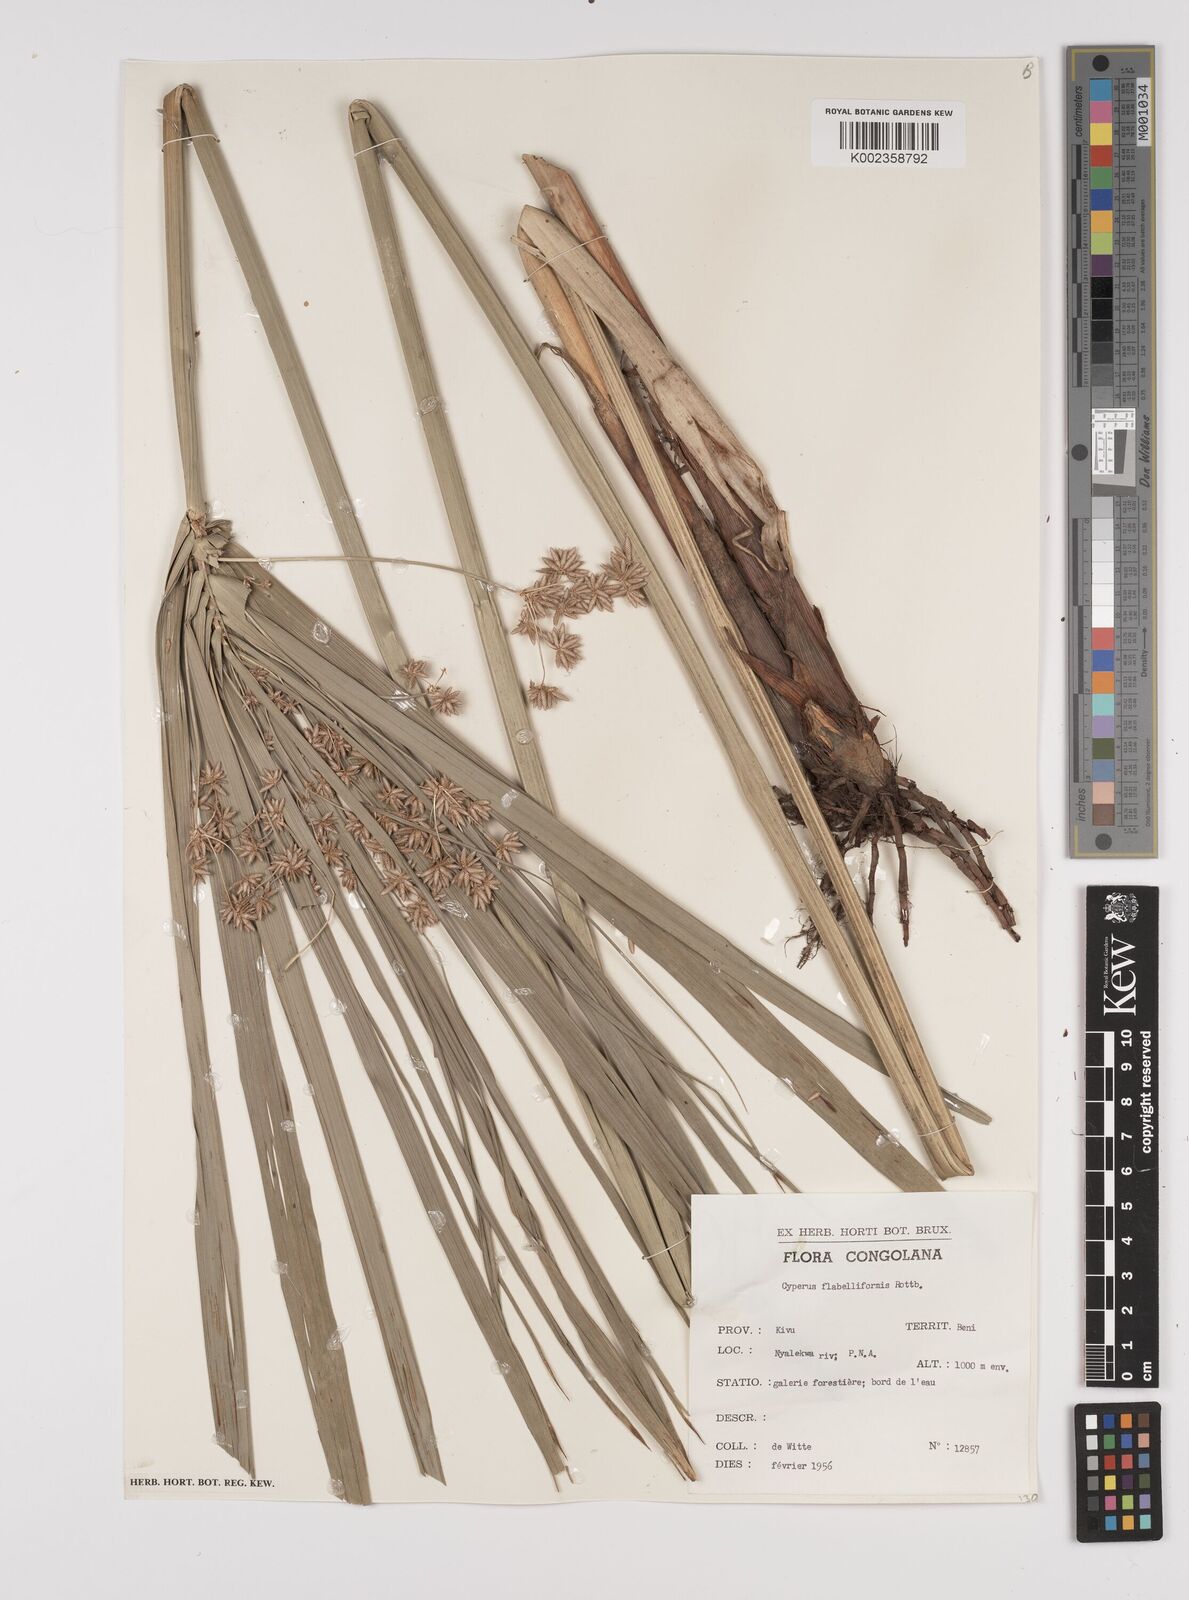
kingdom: Plantae
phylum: Tracheophyta
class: Liliopsida
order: Poales
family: Cyperaceae
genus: Cyperus
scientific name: Cyperus alternifolius
